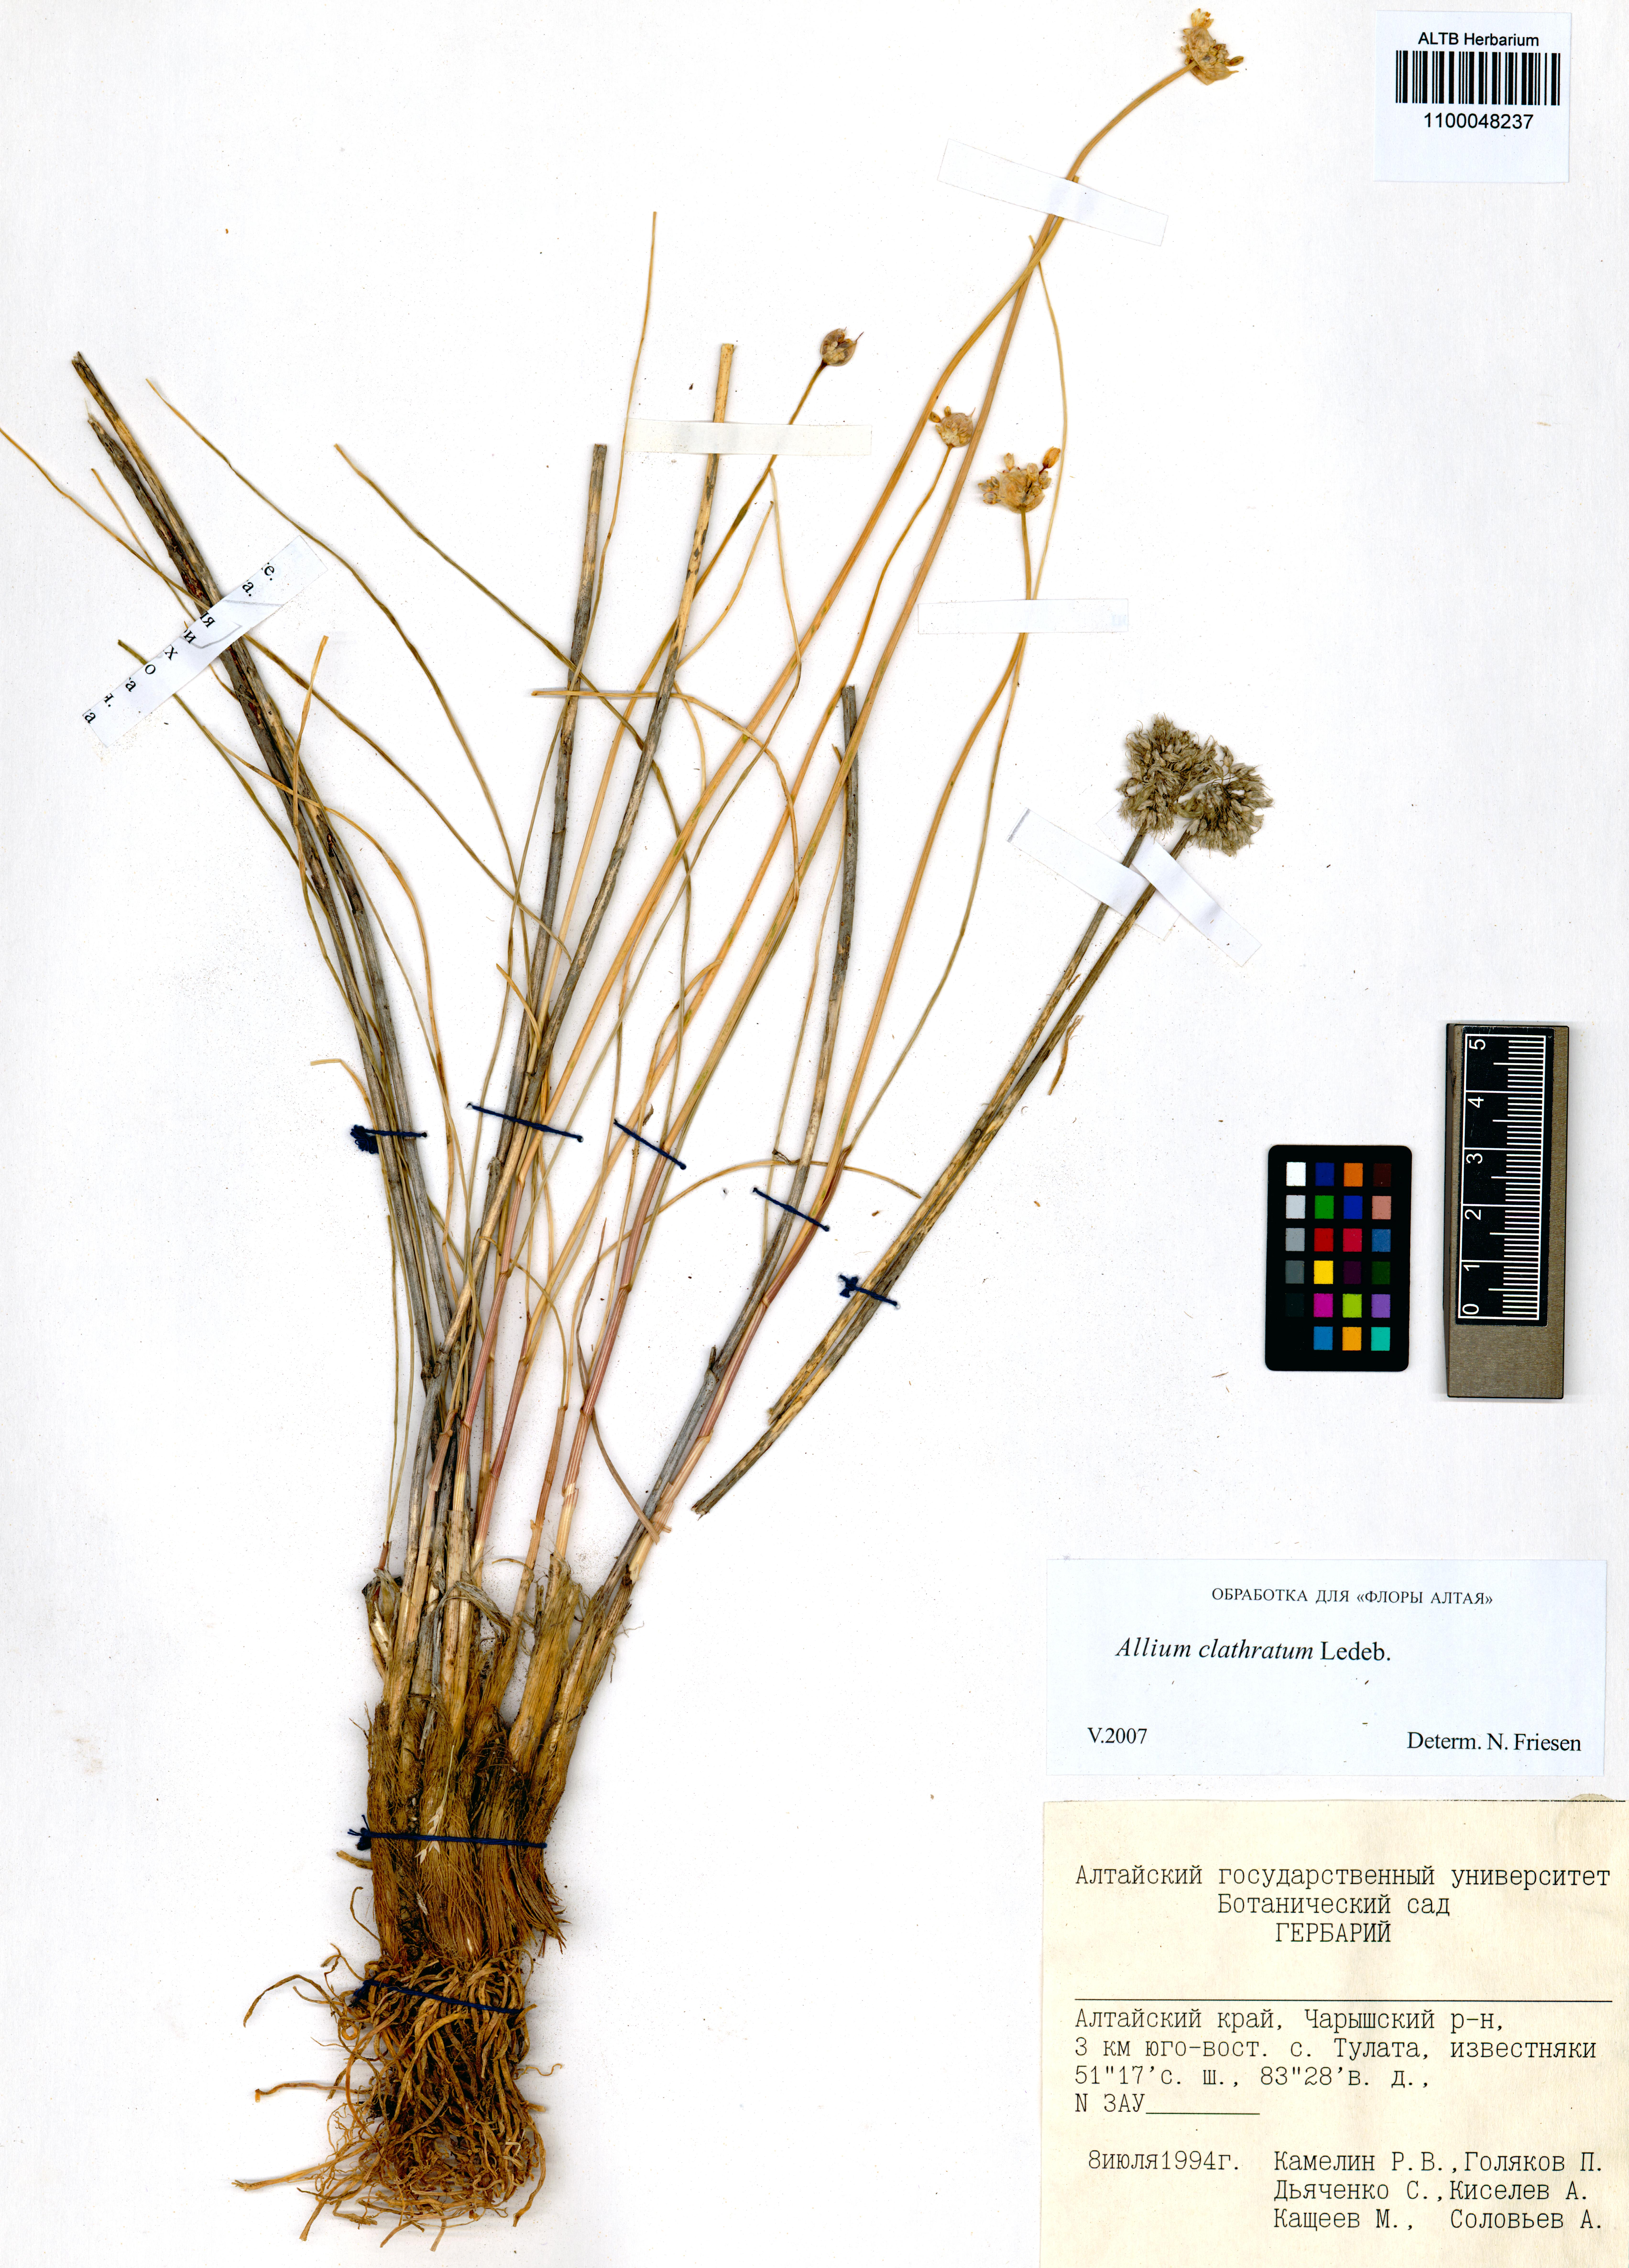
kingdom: Plantae
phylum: Tracheophyta
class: Liliopsida
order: Asparagales
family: Amaryllidaceae
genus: Allium
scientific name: Allium clathratum
